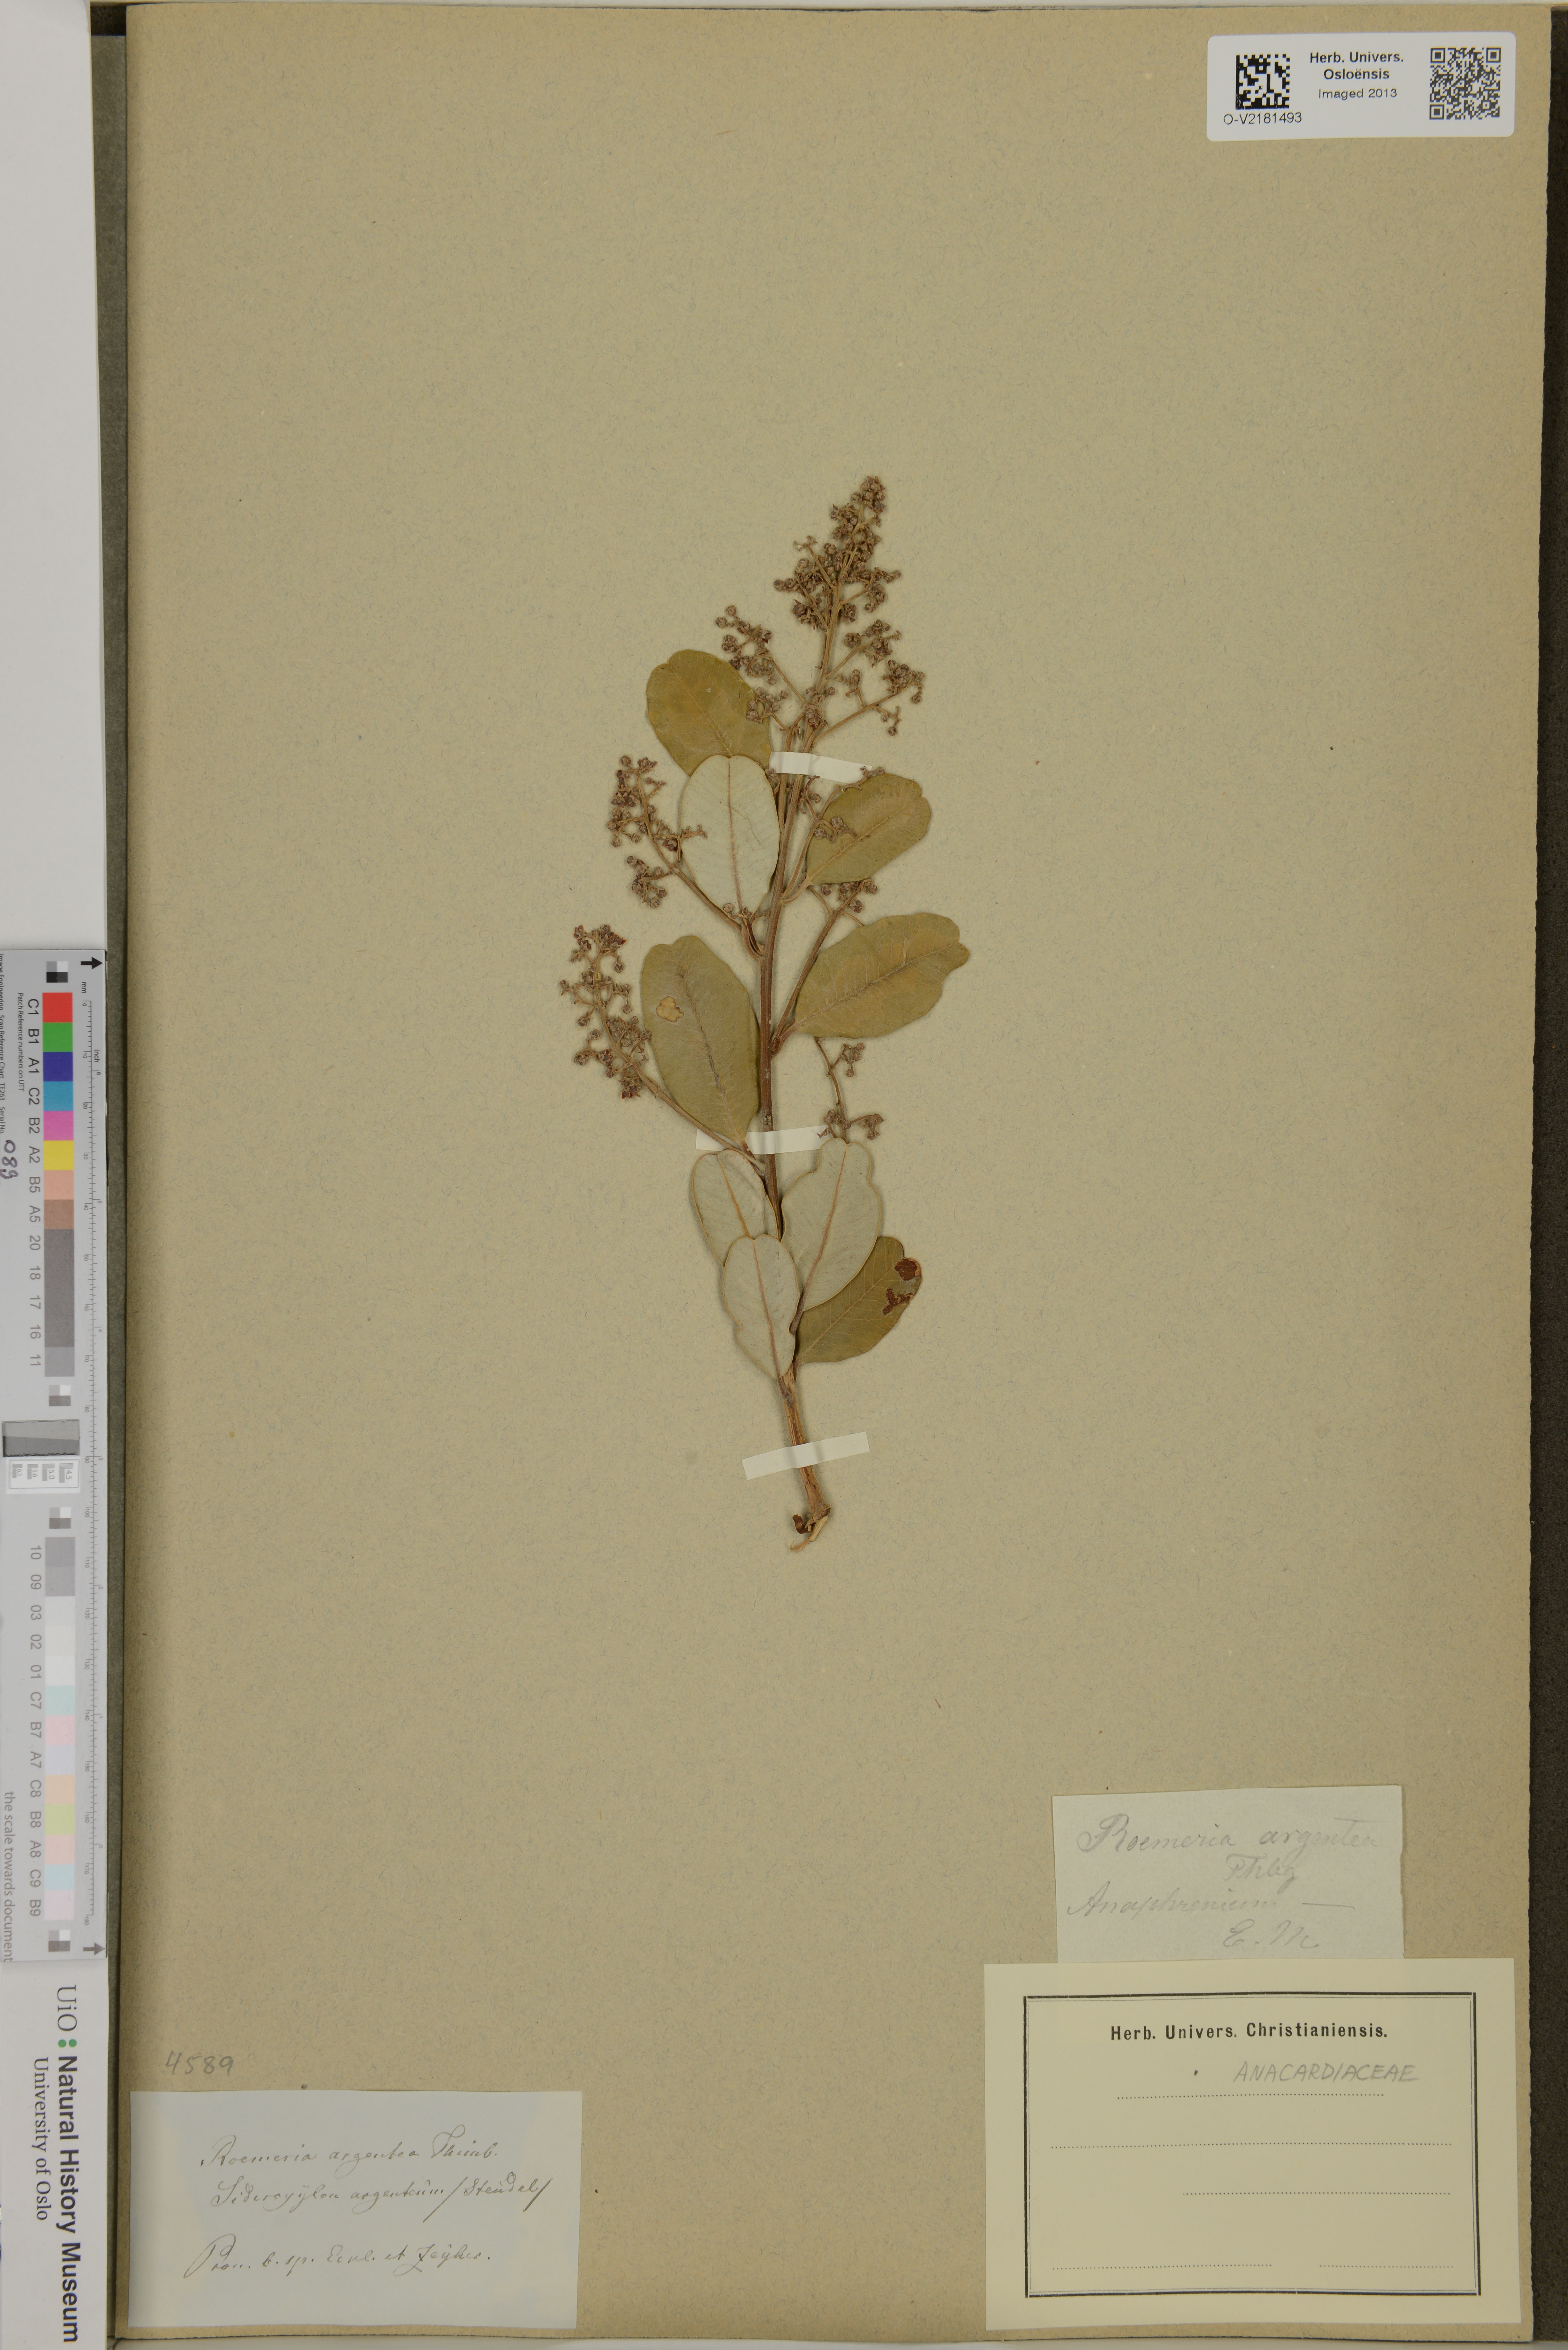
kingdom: Plantae
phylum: Tracheophyta
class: Magnoliopsida
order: Sapindales
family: Anacardiaceae
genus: Heeria
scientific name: Heeria argentea
